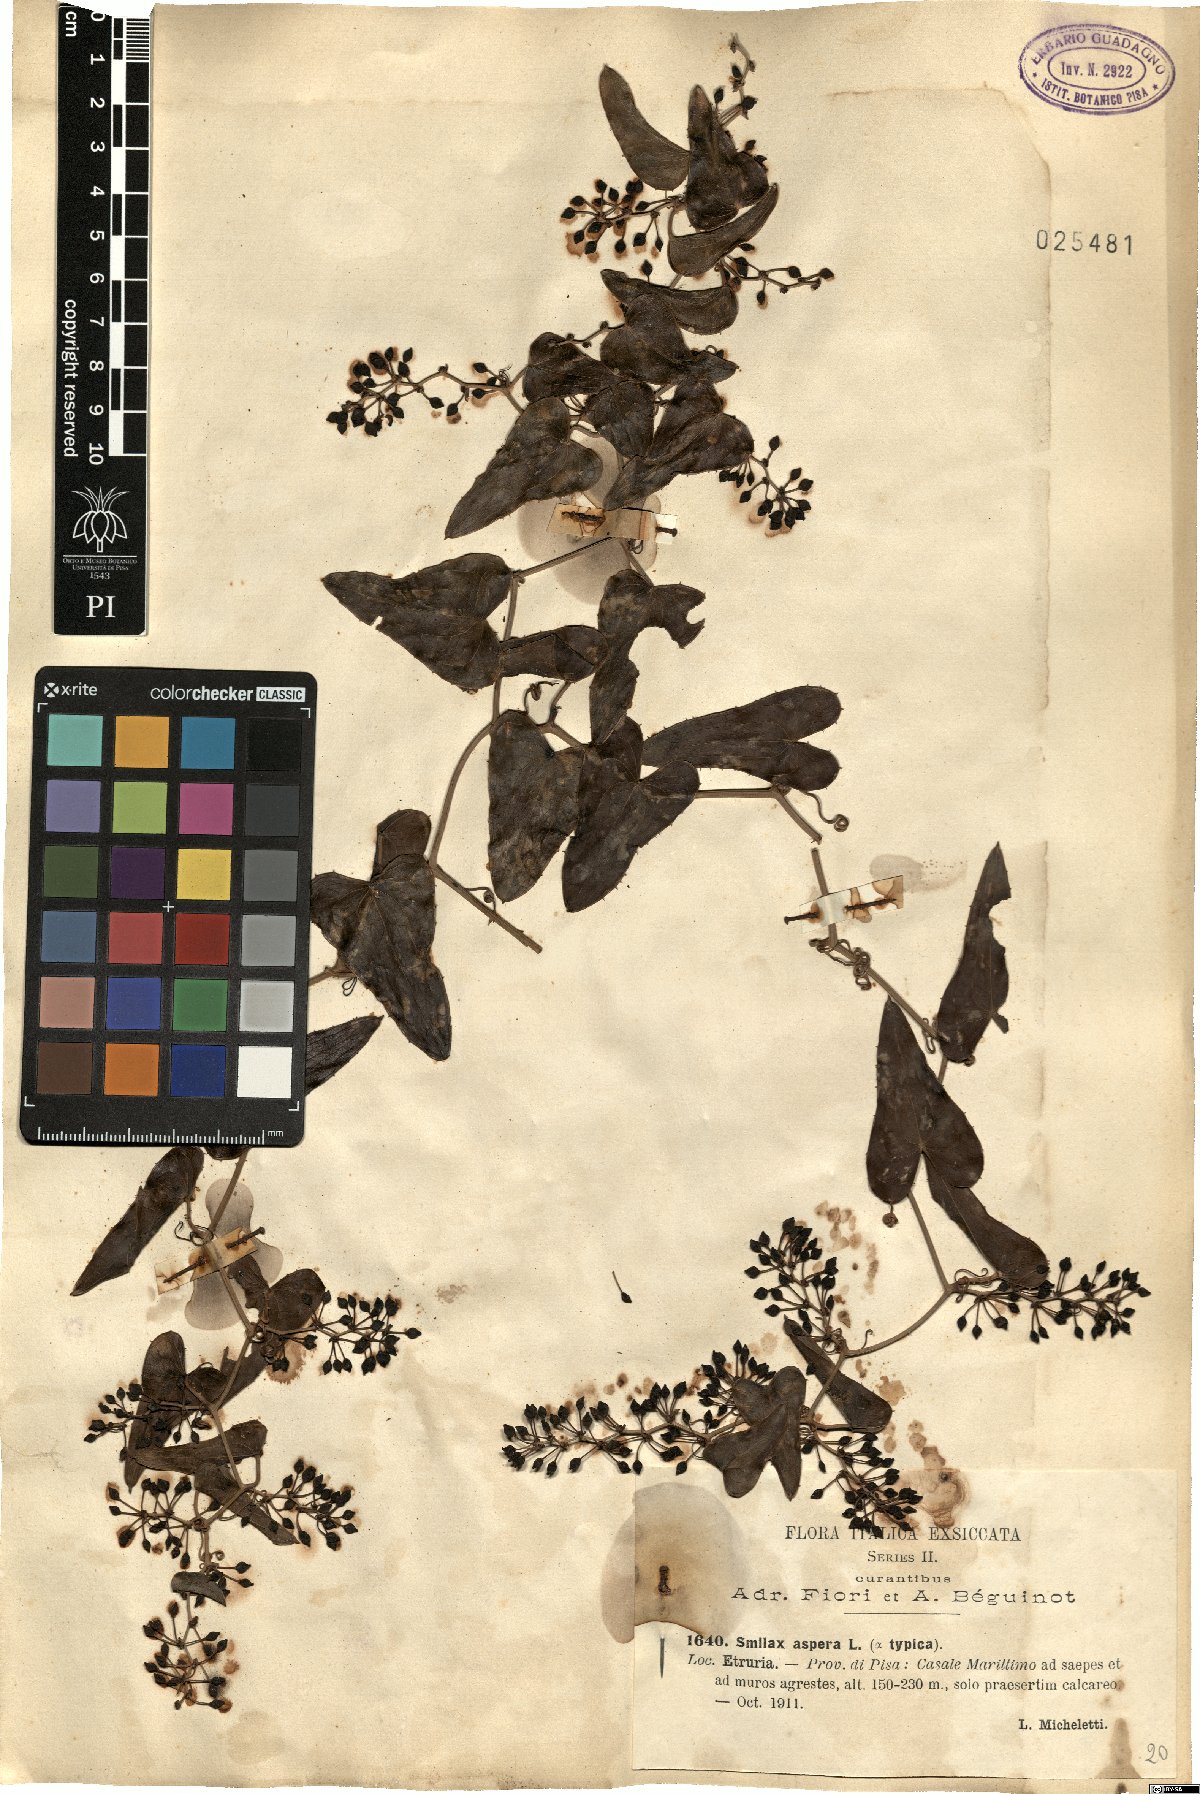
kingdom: Plantae
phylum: Tracheophyta
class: Liliopsida
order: Liliales
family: Smilacaceae
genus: Smilax
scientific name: Smilax aspera
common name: Common smilax
